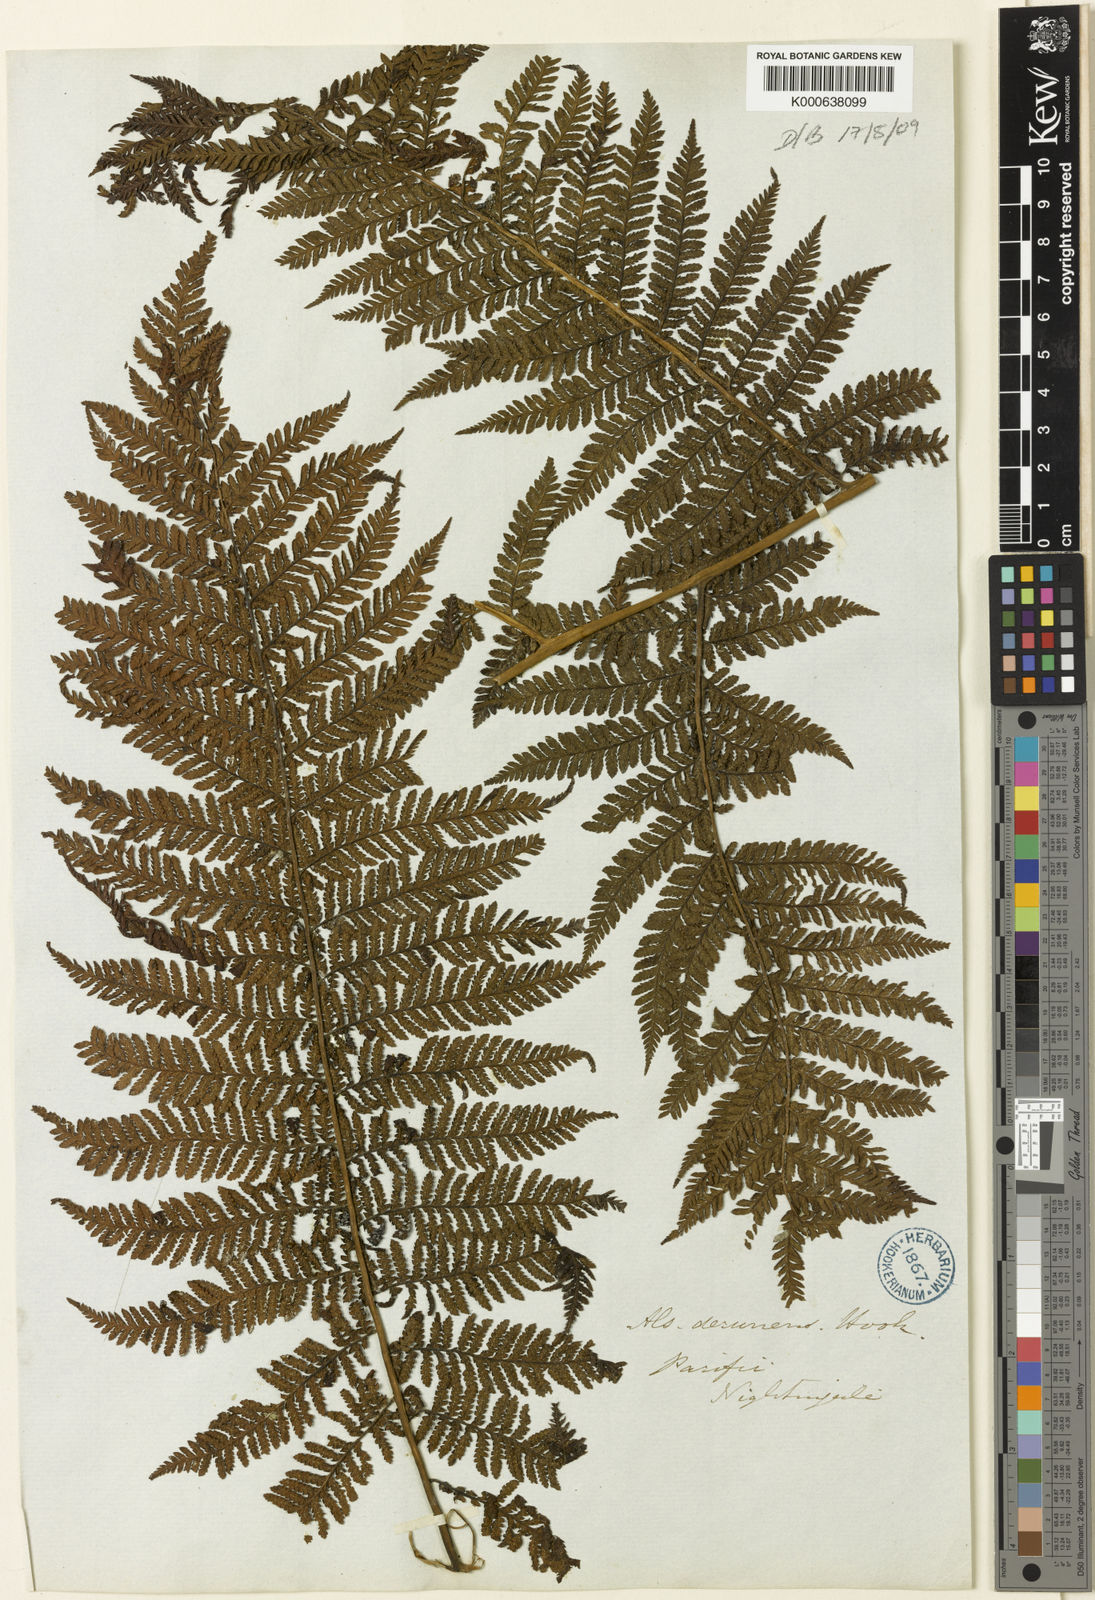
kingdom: Plantae
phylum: Tracheophyta
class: Polypodiopsida
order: Cyatheales
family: Cyatheaceae
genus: Cyathea
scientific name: Cyathea liebmannii
